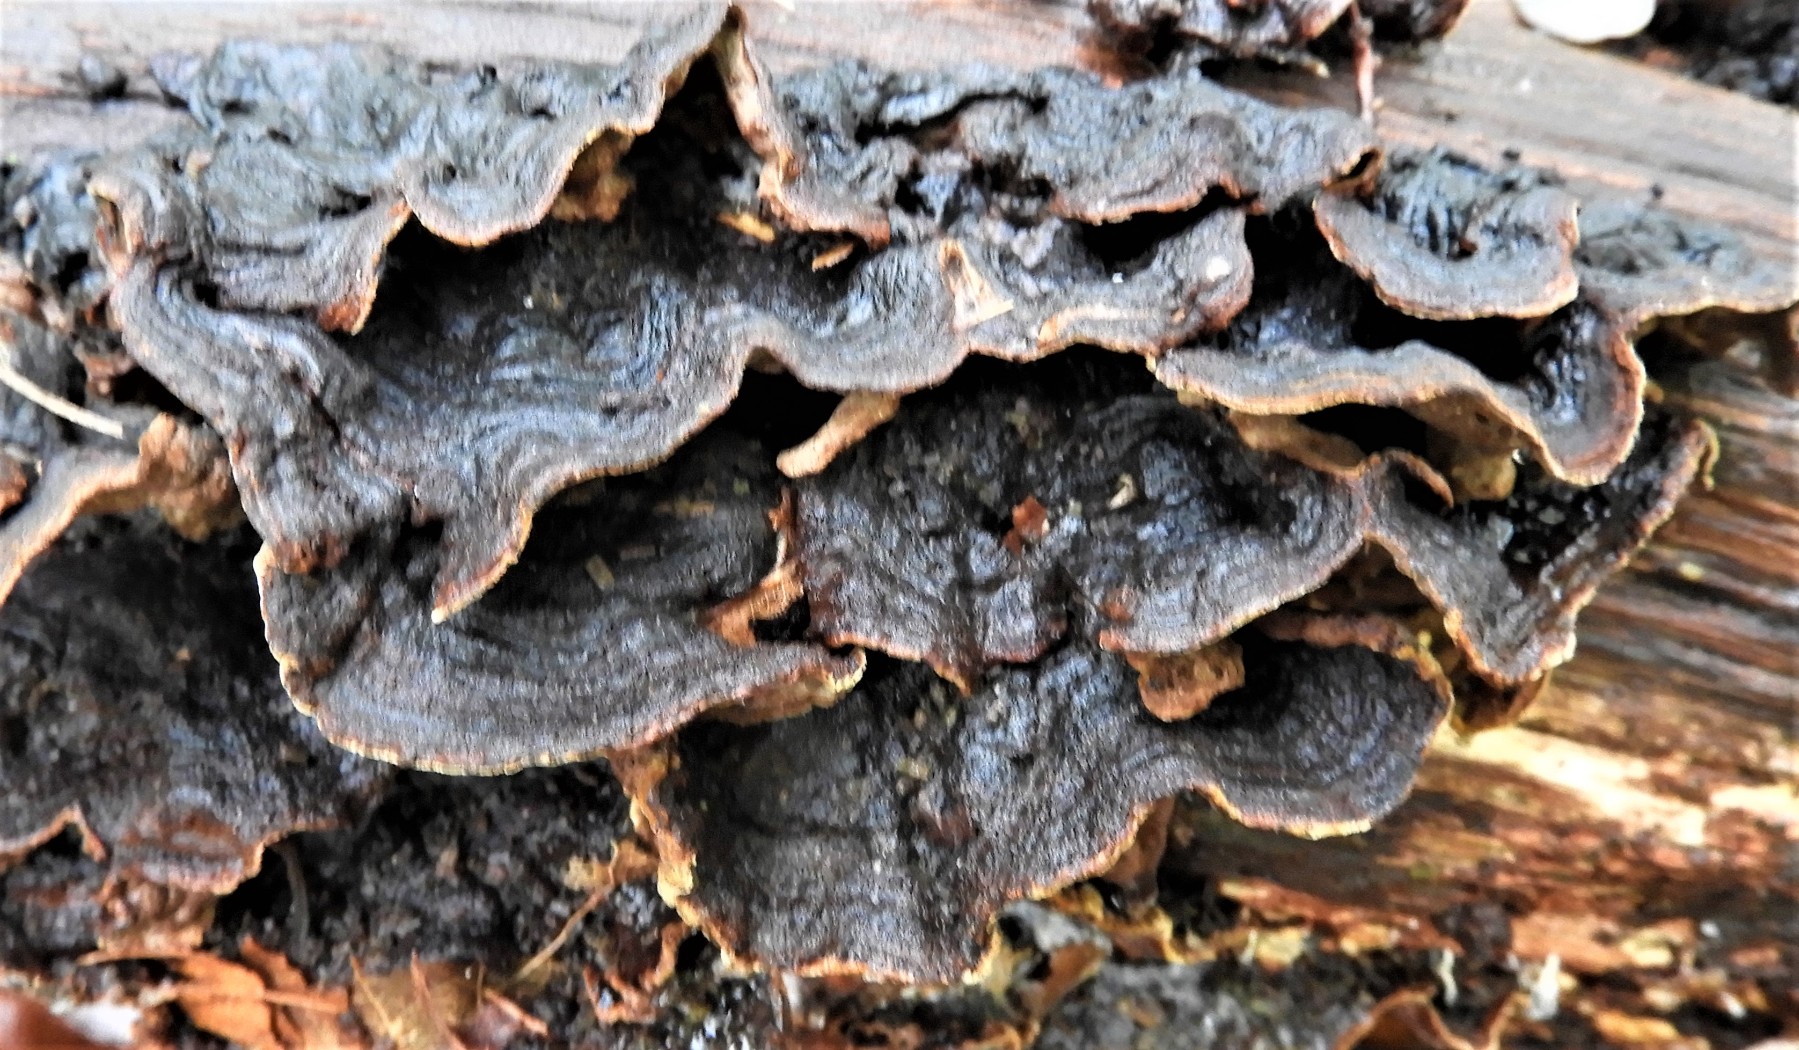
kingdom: Fungi
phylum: Basidiomycota
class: Agaricomycetes
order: Hymenochaetales
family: Hymenochaetaceae
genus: Hymenochaete
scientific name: Hymenochaete rubiginosa
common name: stiv ruslædersvamp
